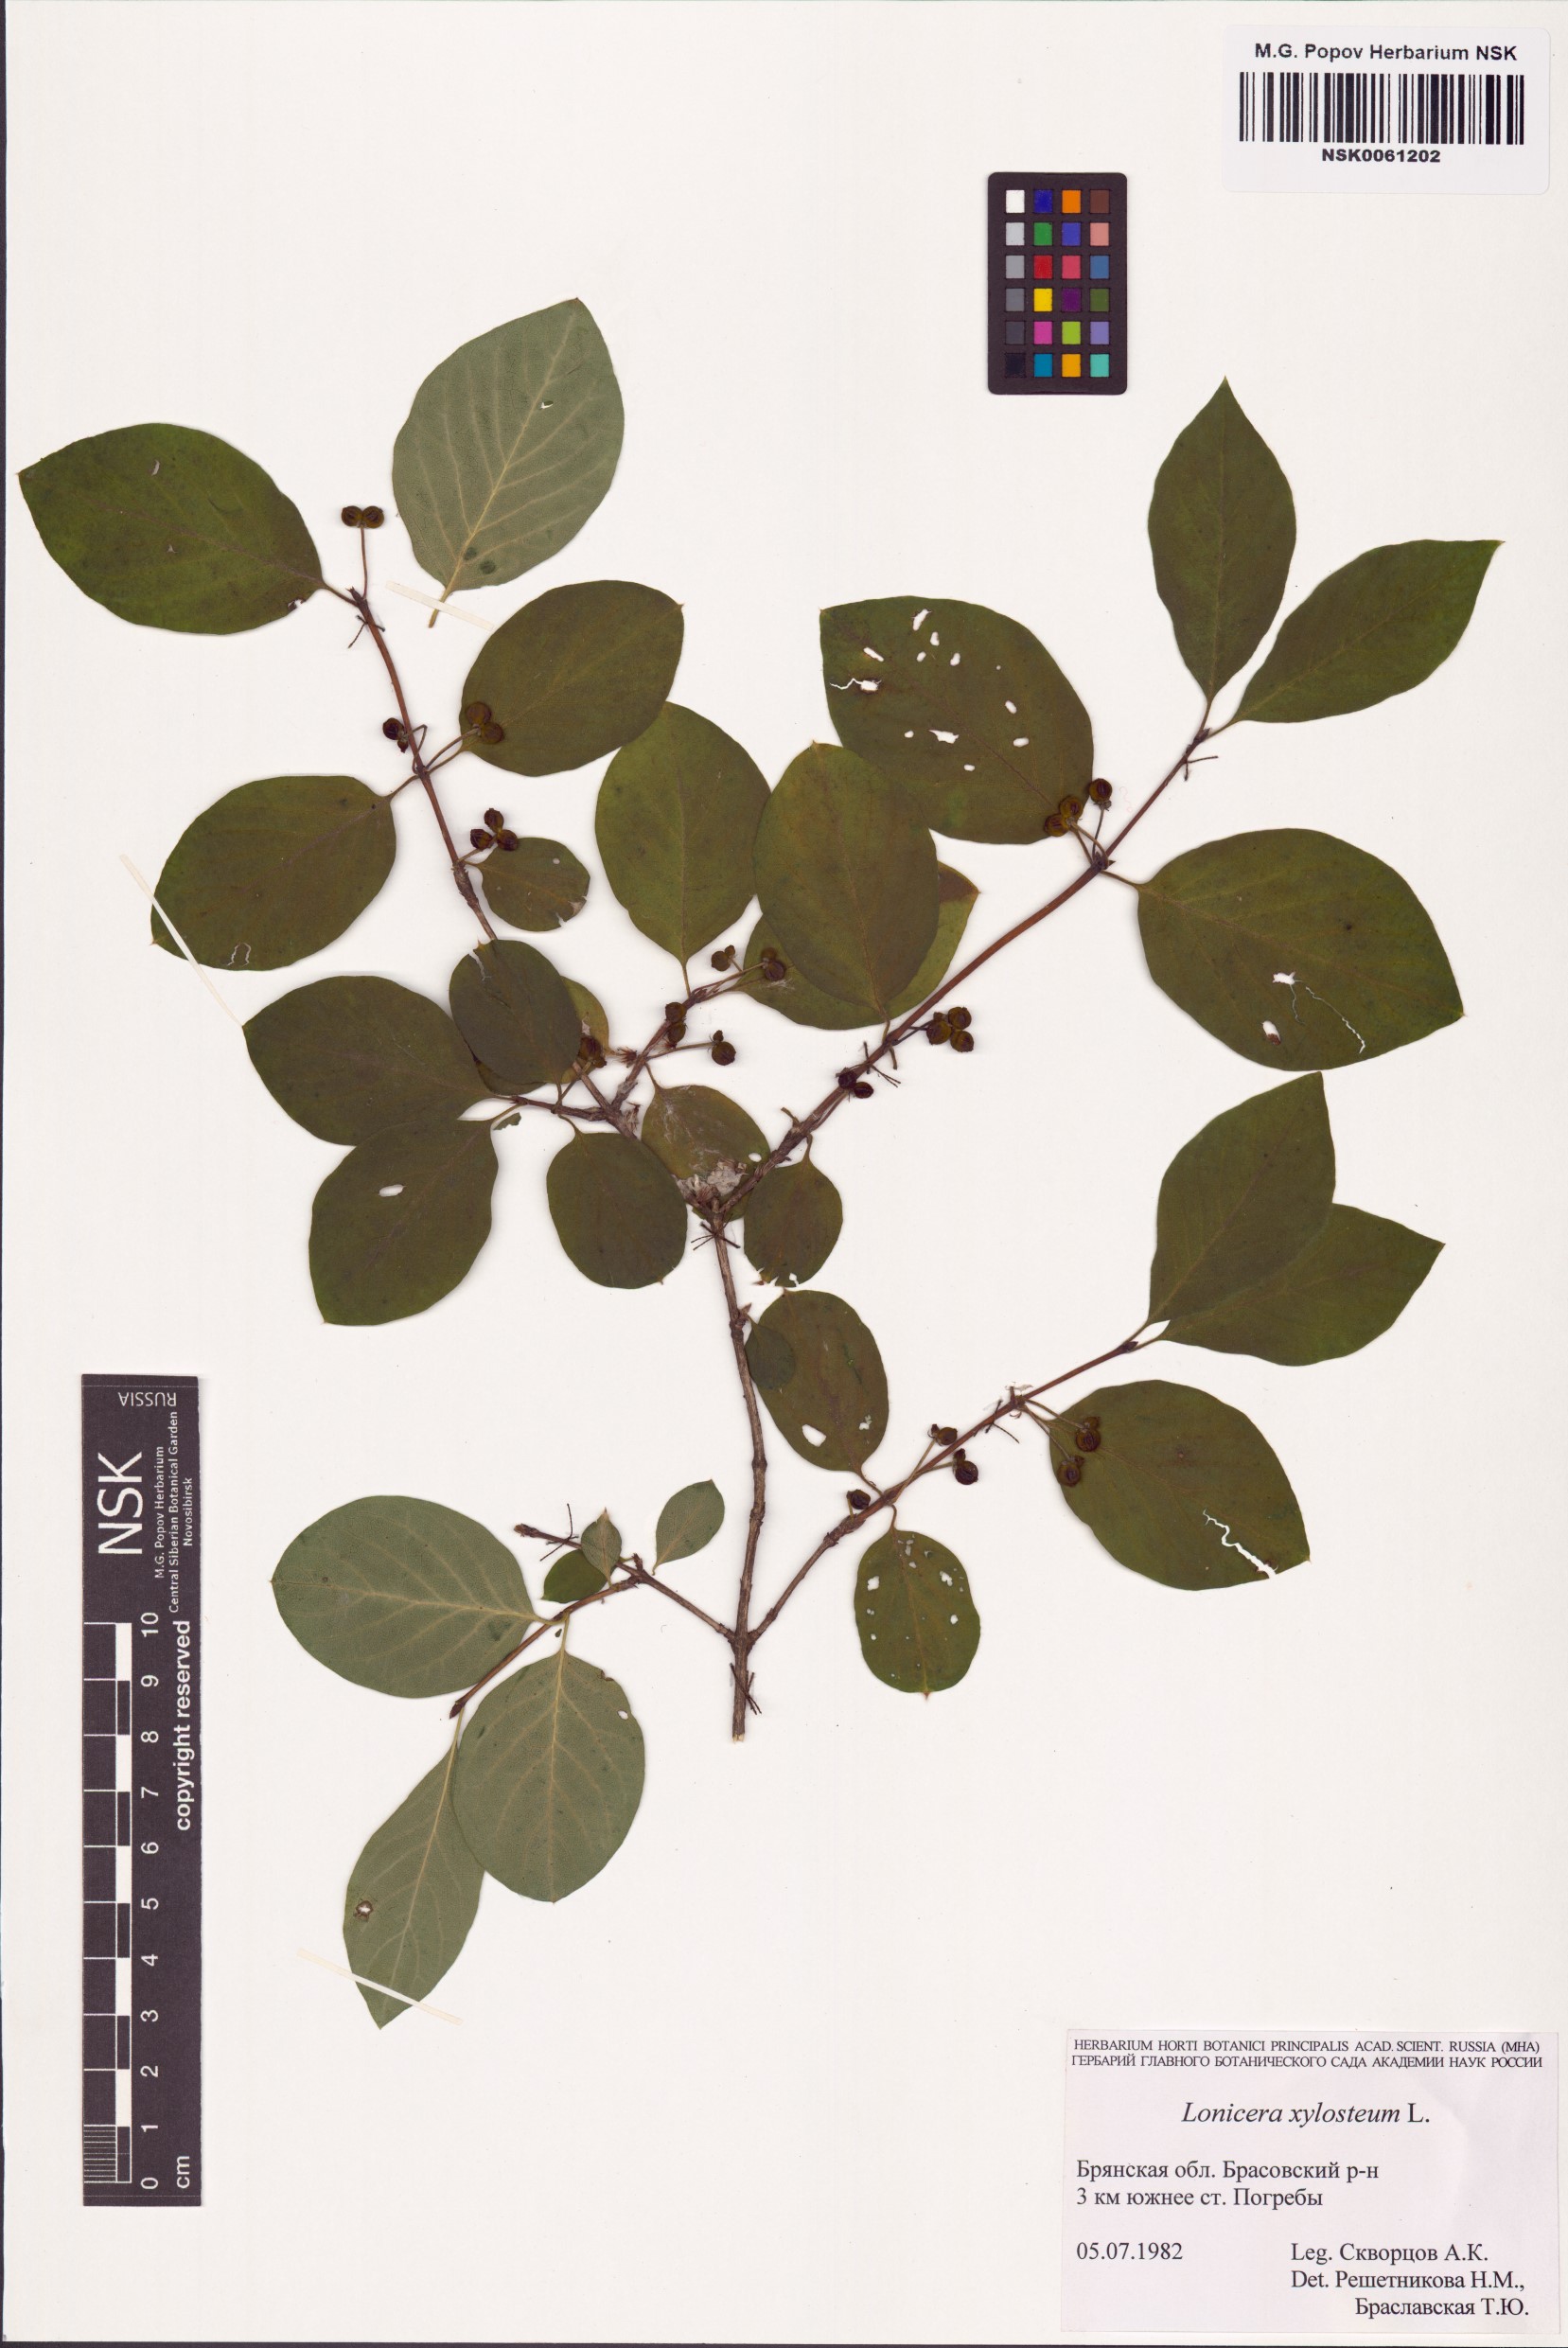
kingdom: Plantae
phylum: Tracheophyta
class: Magnoliopsida
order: Dipsacales
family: Caprifoliaceae
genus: Lonicera
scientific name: Lonicera xylosteum
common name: Fly honeysuckle
